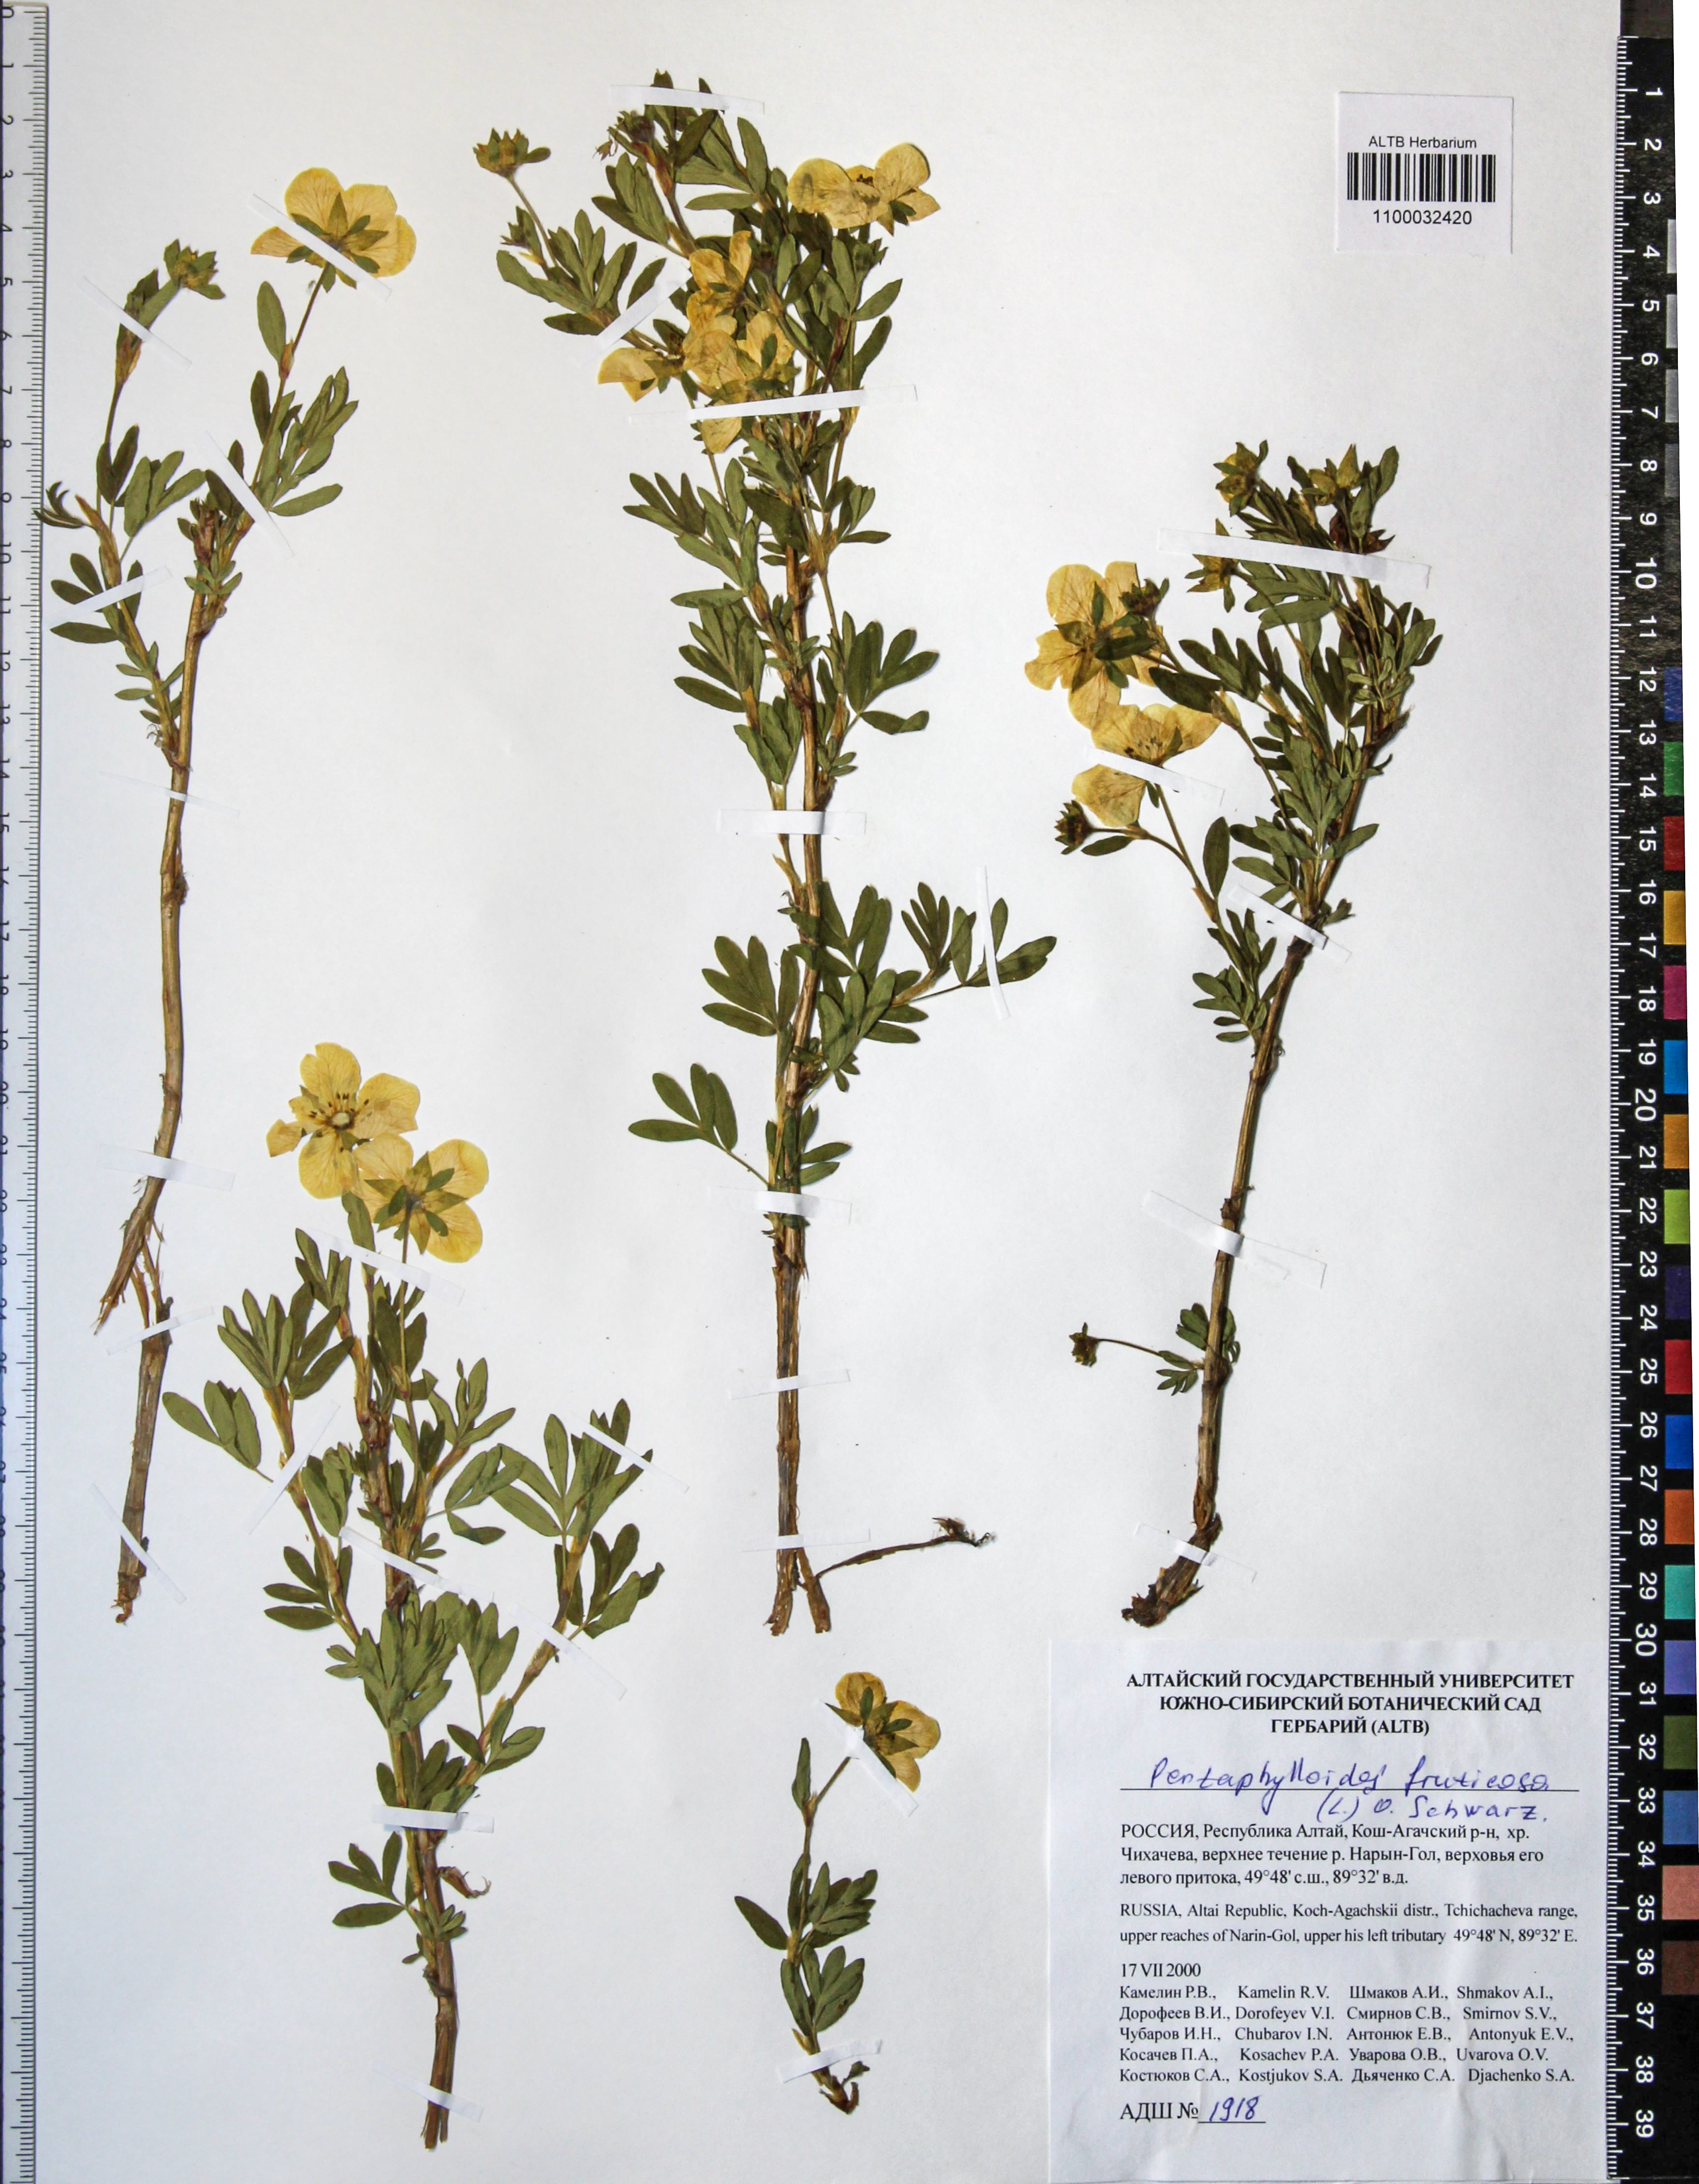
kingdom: Plantae
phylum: Tracheophyta
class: Magnoliopsida
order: Rosales
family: Rosaceae
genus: Dasiphora
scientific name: Dasiphora fruticosa
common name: Shrubby cinquefoil
